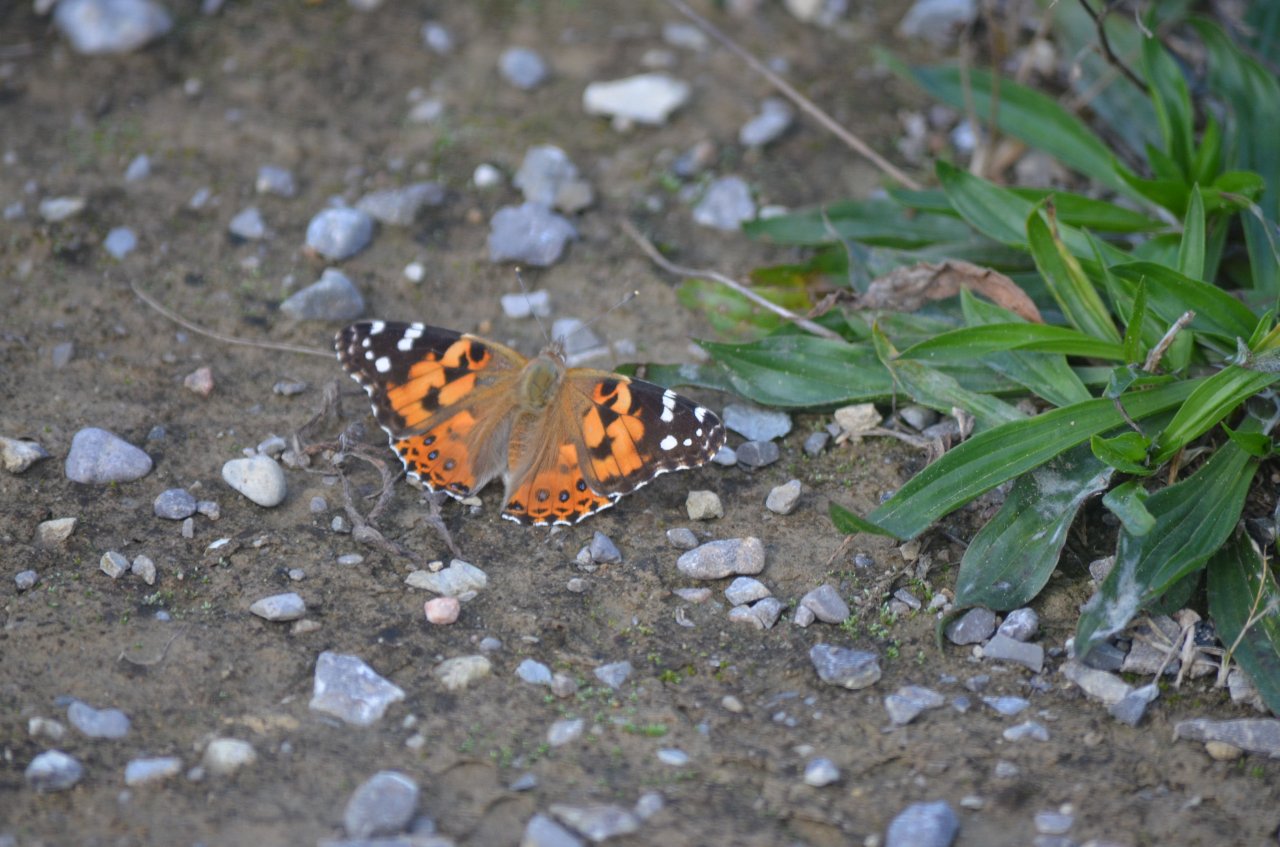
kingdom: Animalia
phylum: Arthropoda
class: Insecta
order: Lepidoptera
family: Nymphalidae
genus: Vanessa
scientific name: Vanessa cardui
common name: Painted Lady
